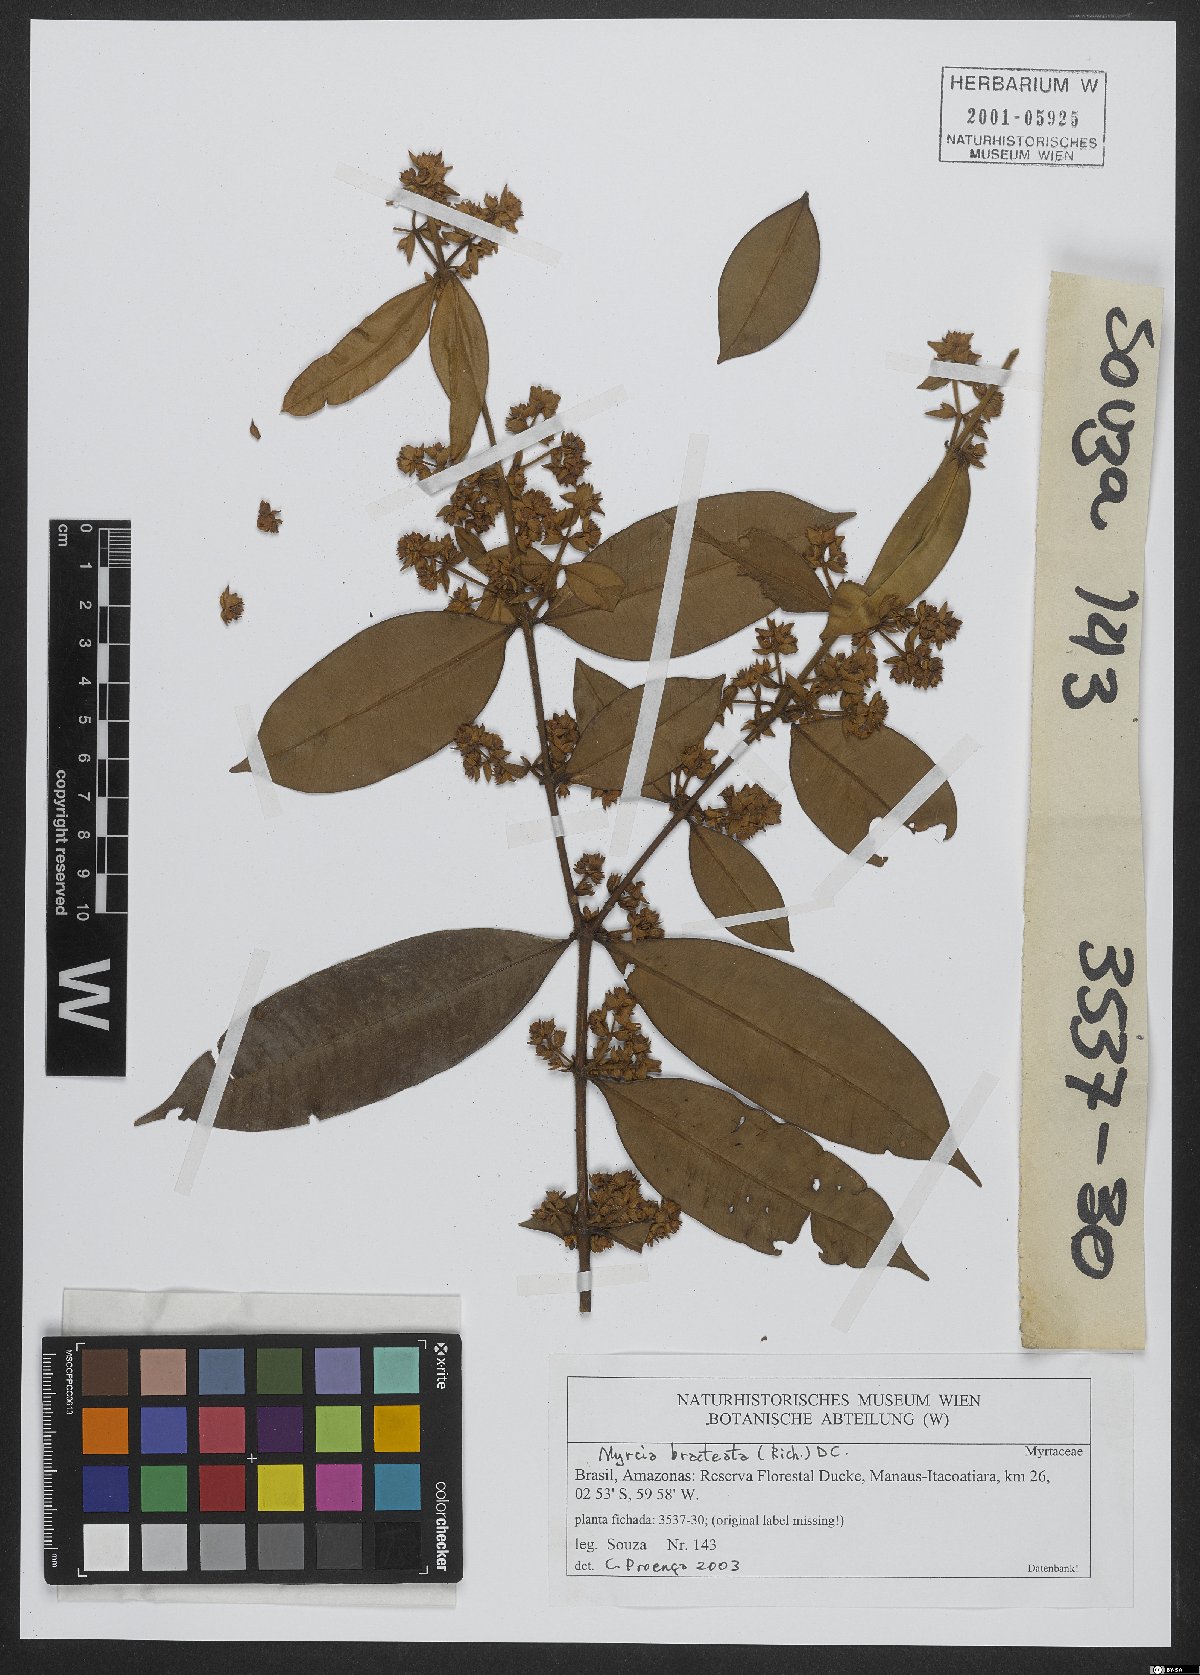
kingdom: Plantae
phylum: Tracheophyta
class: Magnoliopsida
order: Myrtales
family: Myrtaceae
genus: Myrcia
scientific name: Myrcia bracteata
